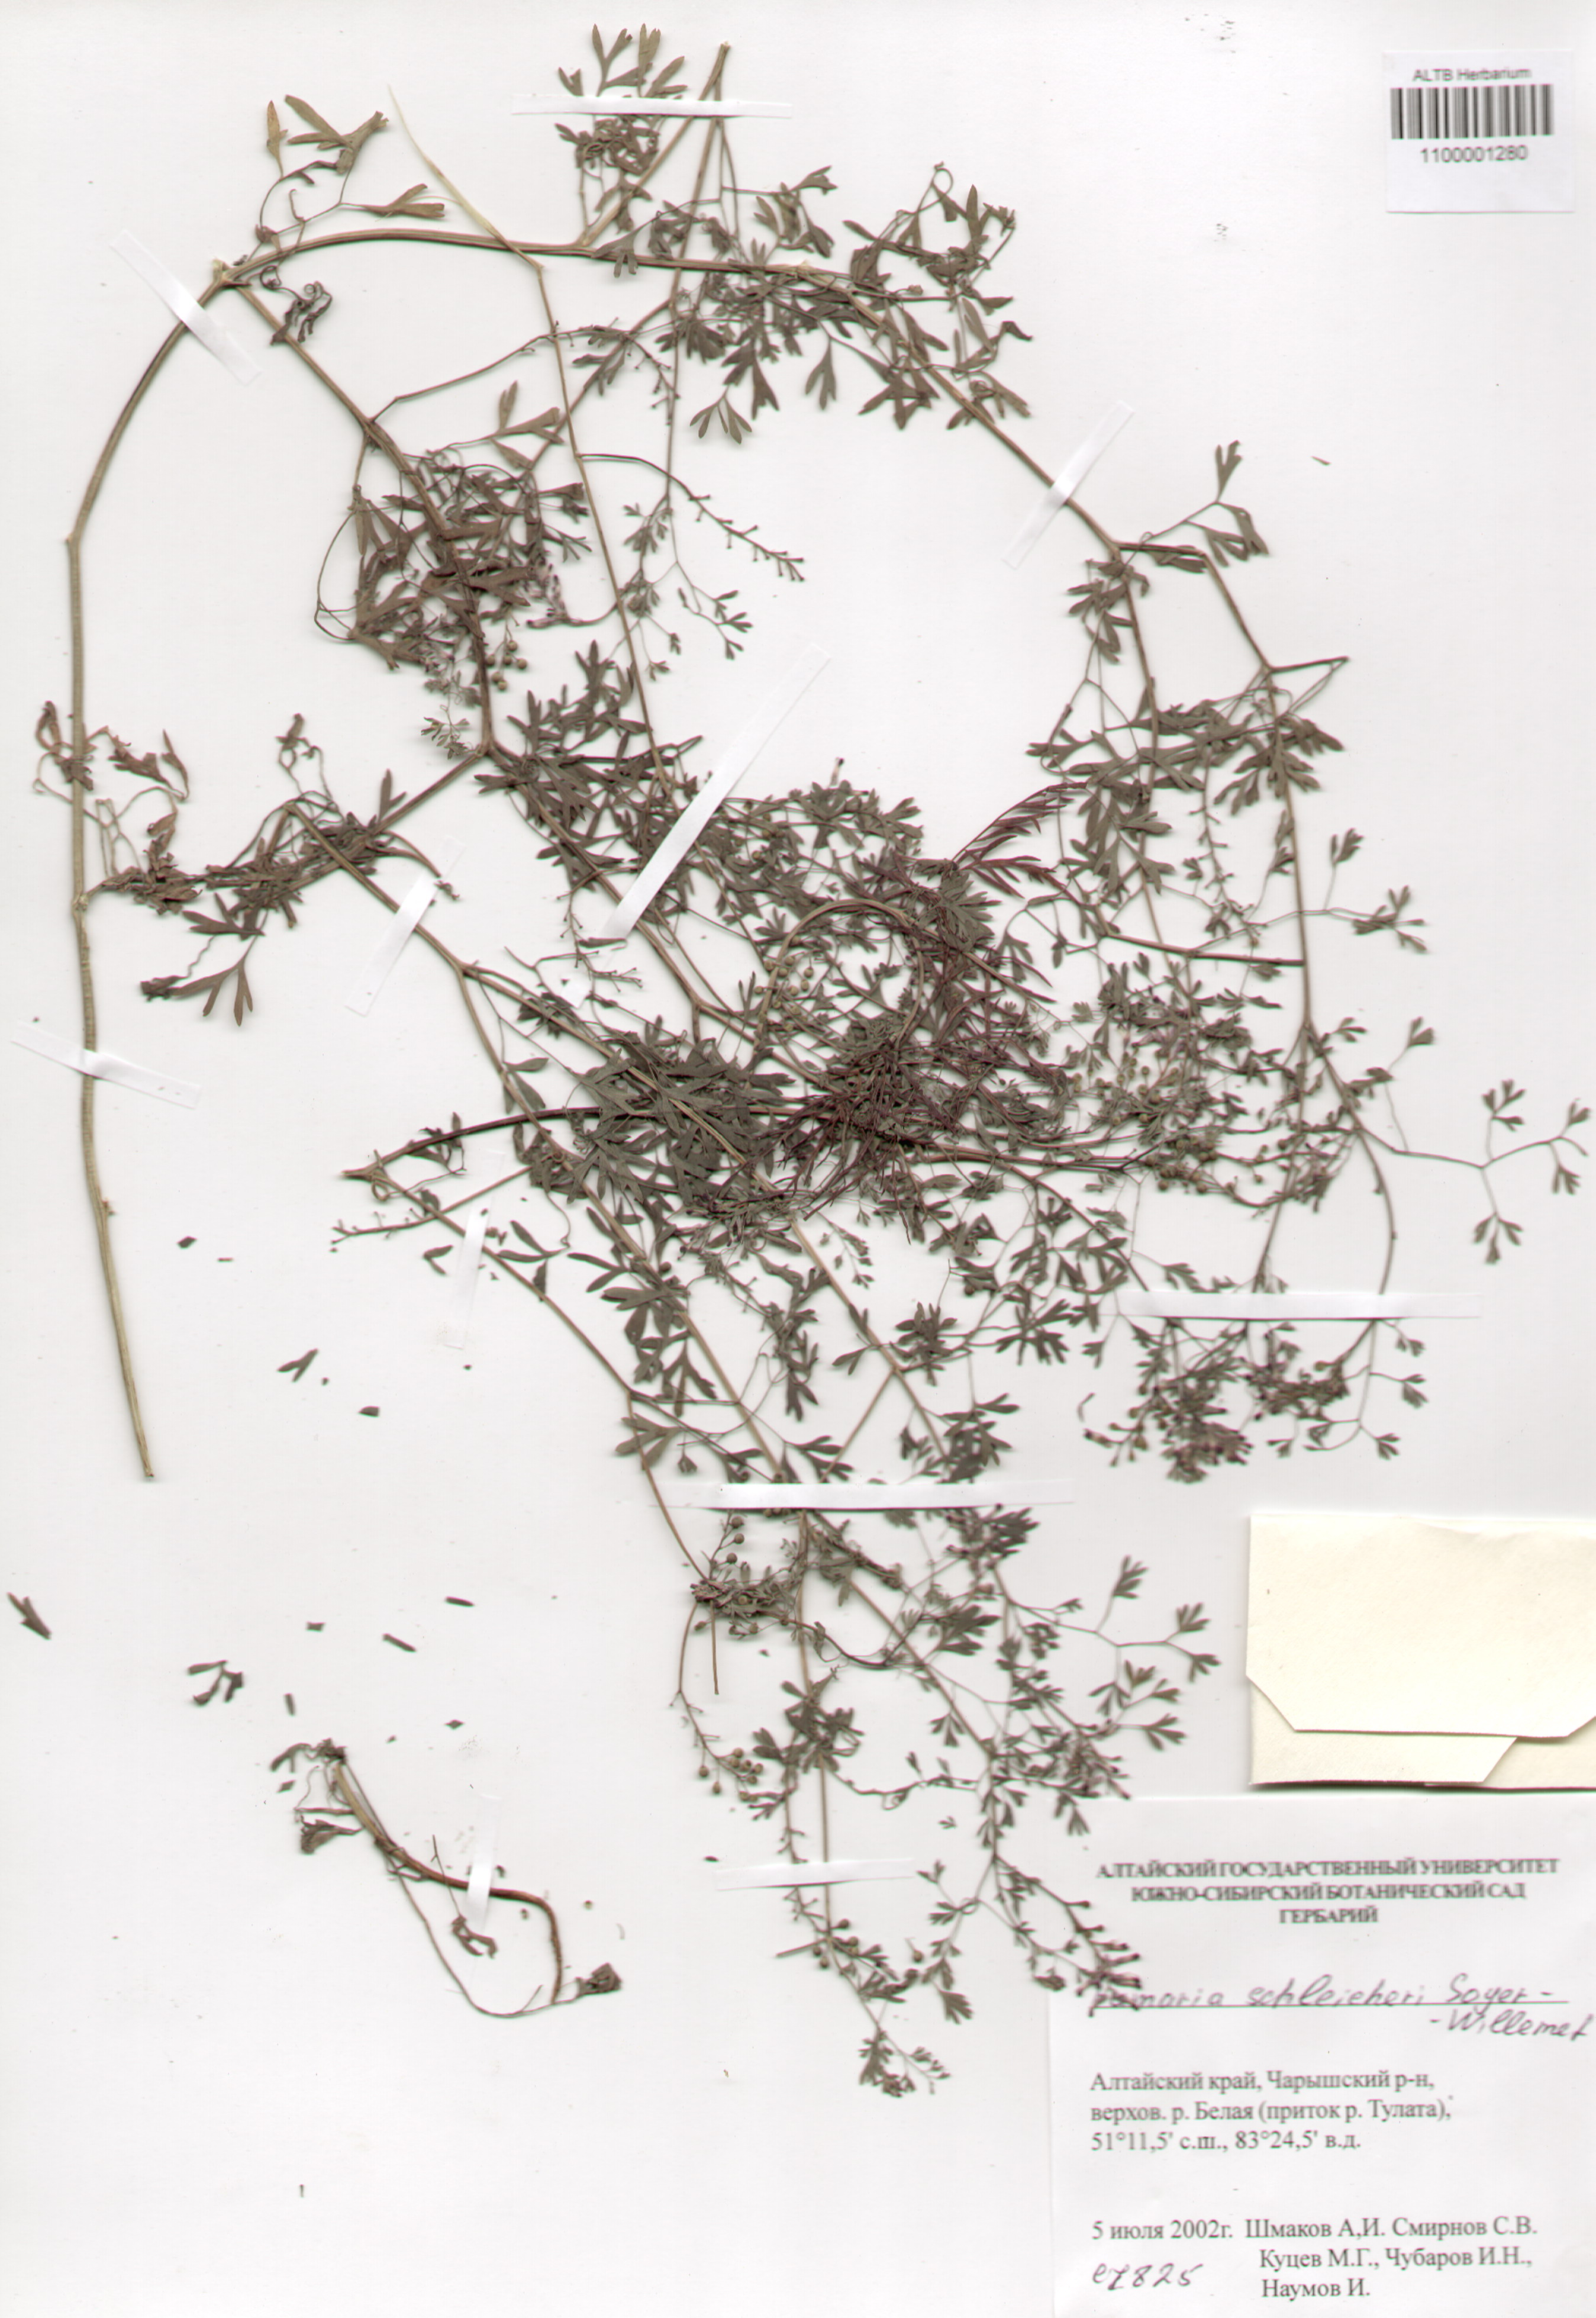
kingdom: Plantae
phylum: Tracheophyta
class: Magnoliopsida
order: Ranunculales
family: Papaveraceae
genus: Fumaria
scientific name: Fumaria schleicheri
